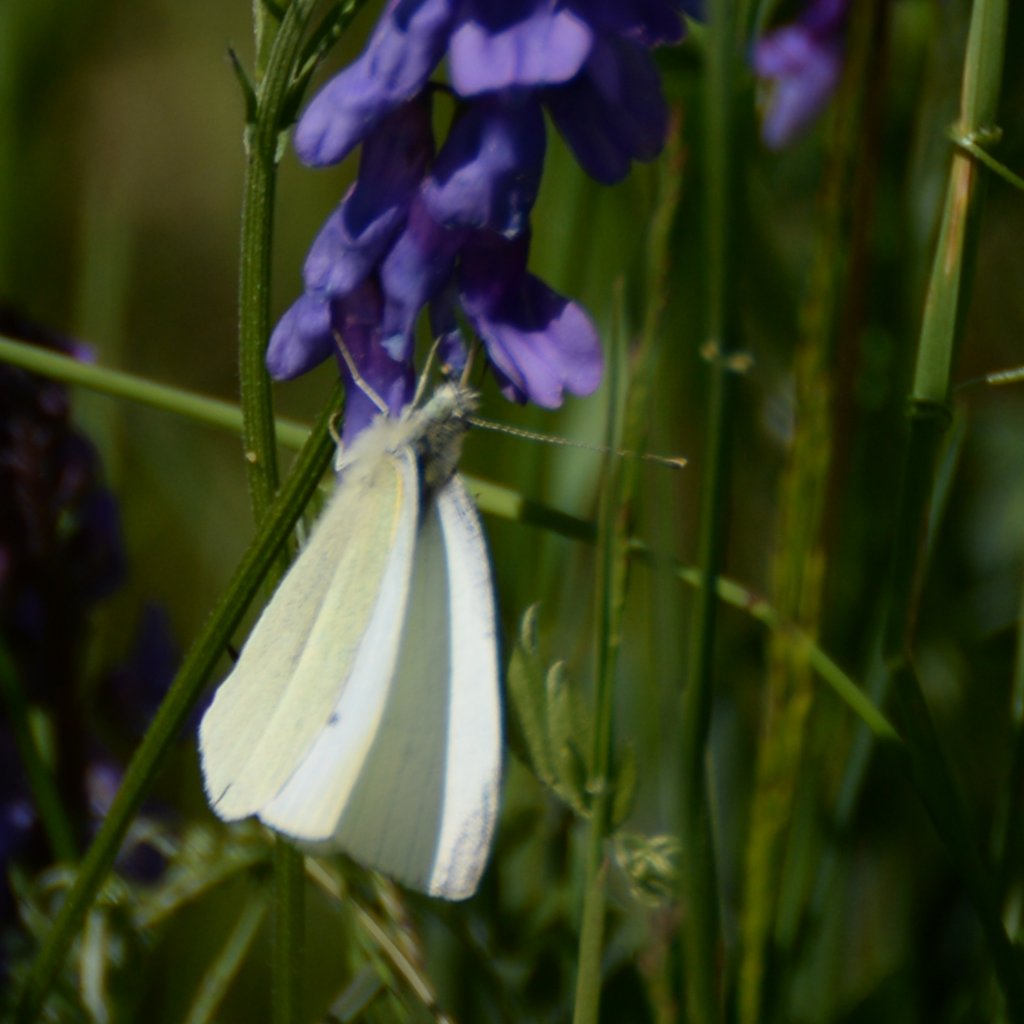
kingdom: Animalia
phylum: Arthropoda
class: Insecta
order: Lepidoptera
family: Pieridae
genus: Pieris
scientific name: Pieris rapae
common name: Cabbage White
